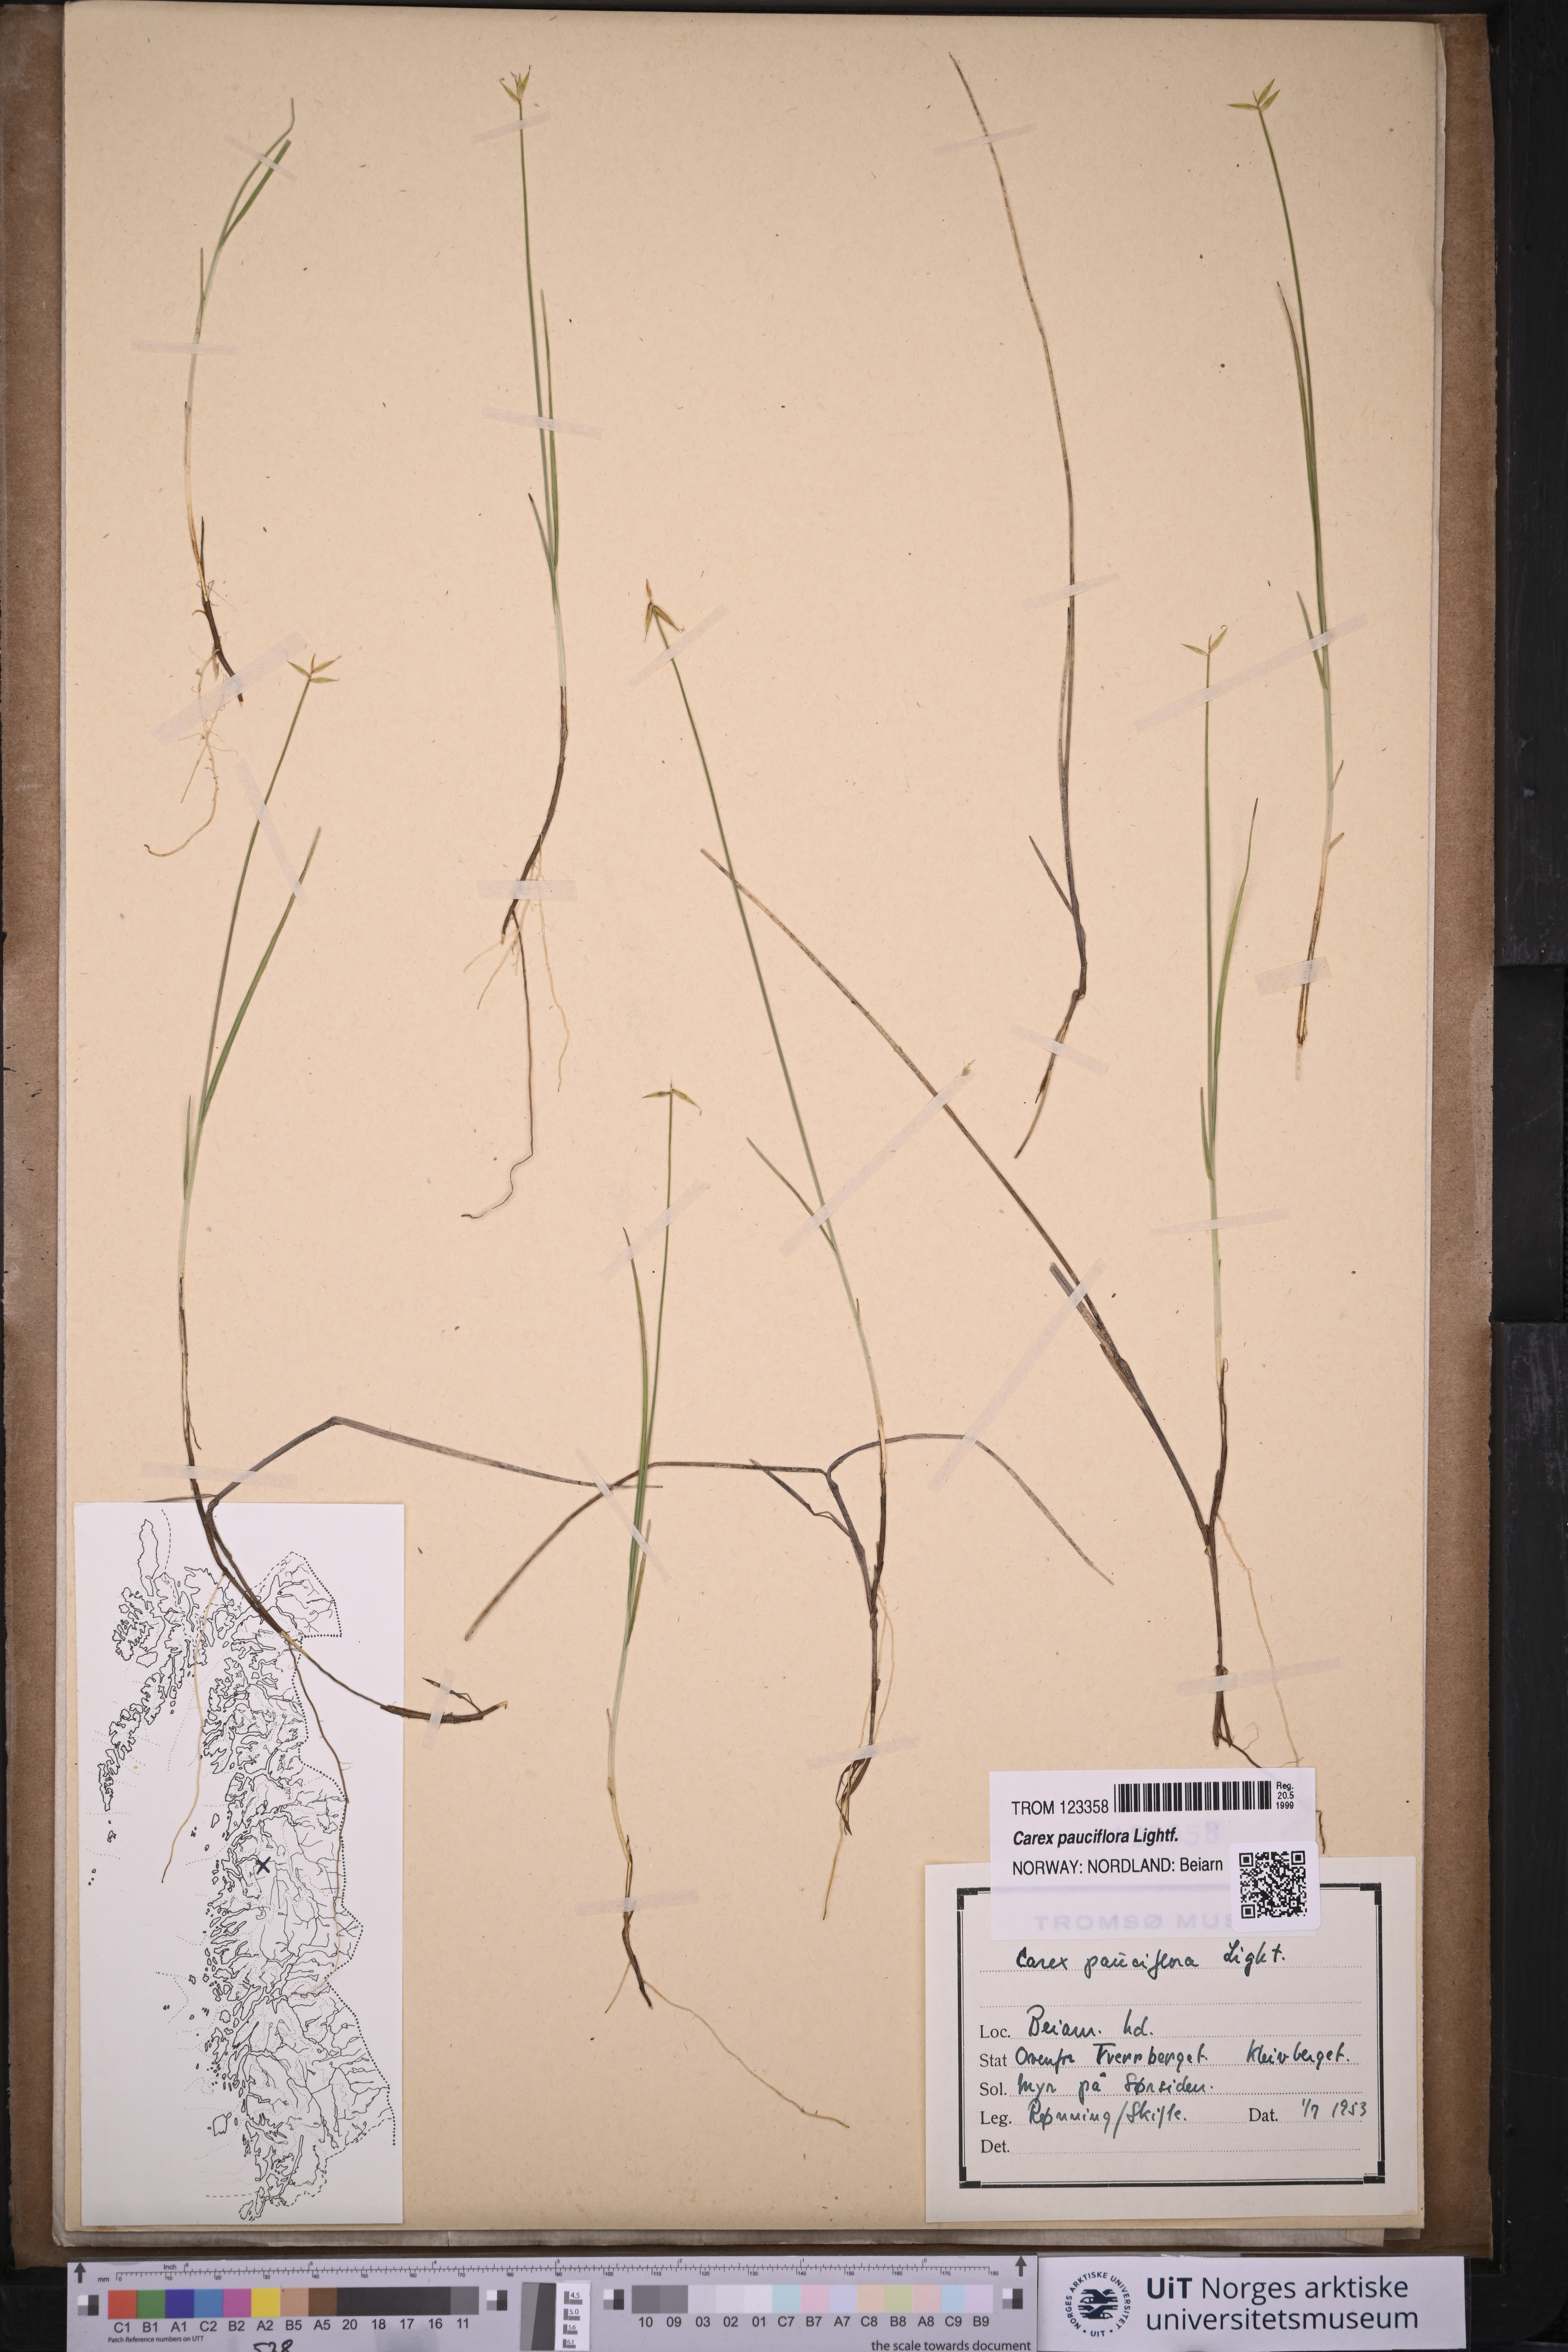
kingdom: Plantae
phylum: Tracheophyta
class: Liliopsida
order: Poales
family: Cyperaceae
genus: Carex
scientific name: Carex pauciflora
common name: Few-flowered sedge
